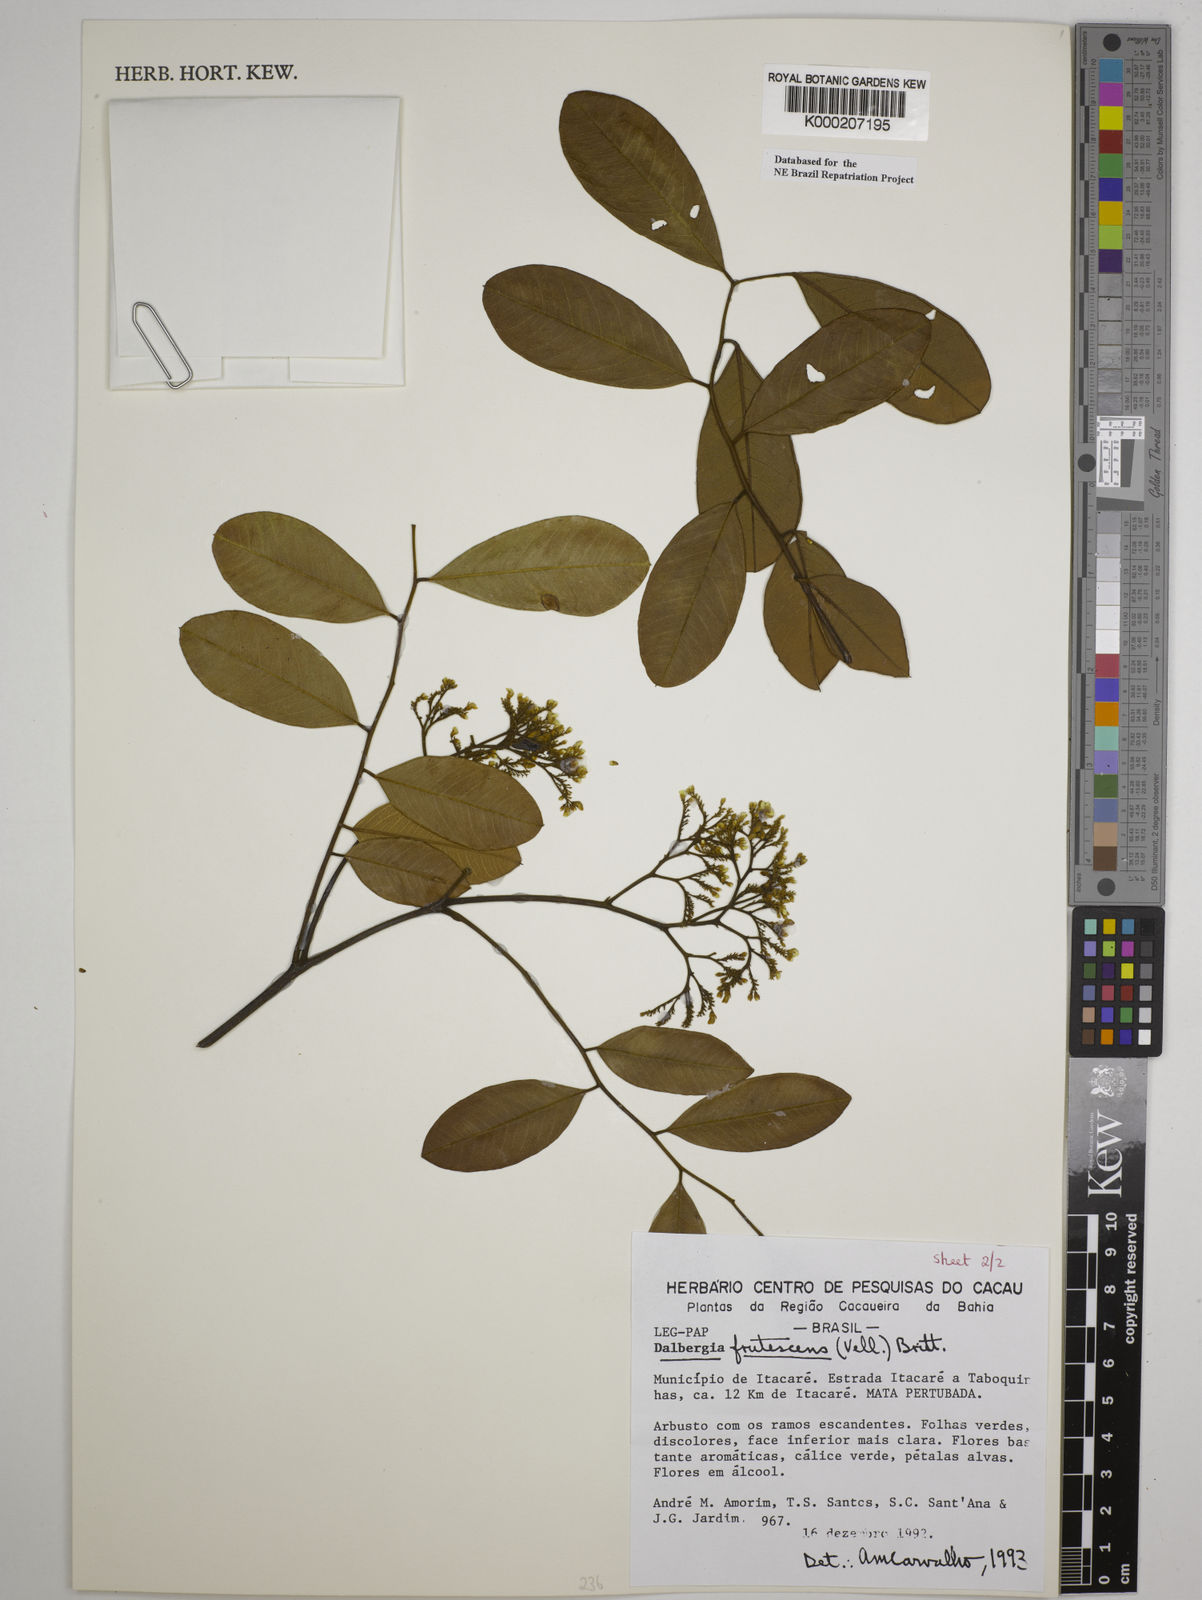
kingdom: Plantae
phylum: Tracheophyta
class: Magnoliopsida
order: Fabales
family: Fabaceae
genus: Dalbergia
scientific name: Dalbergia frutescens
